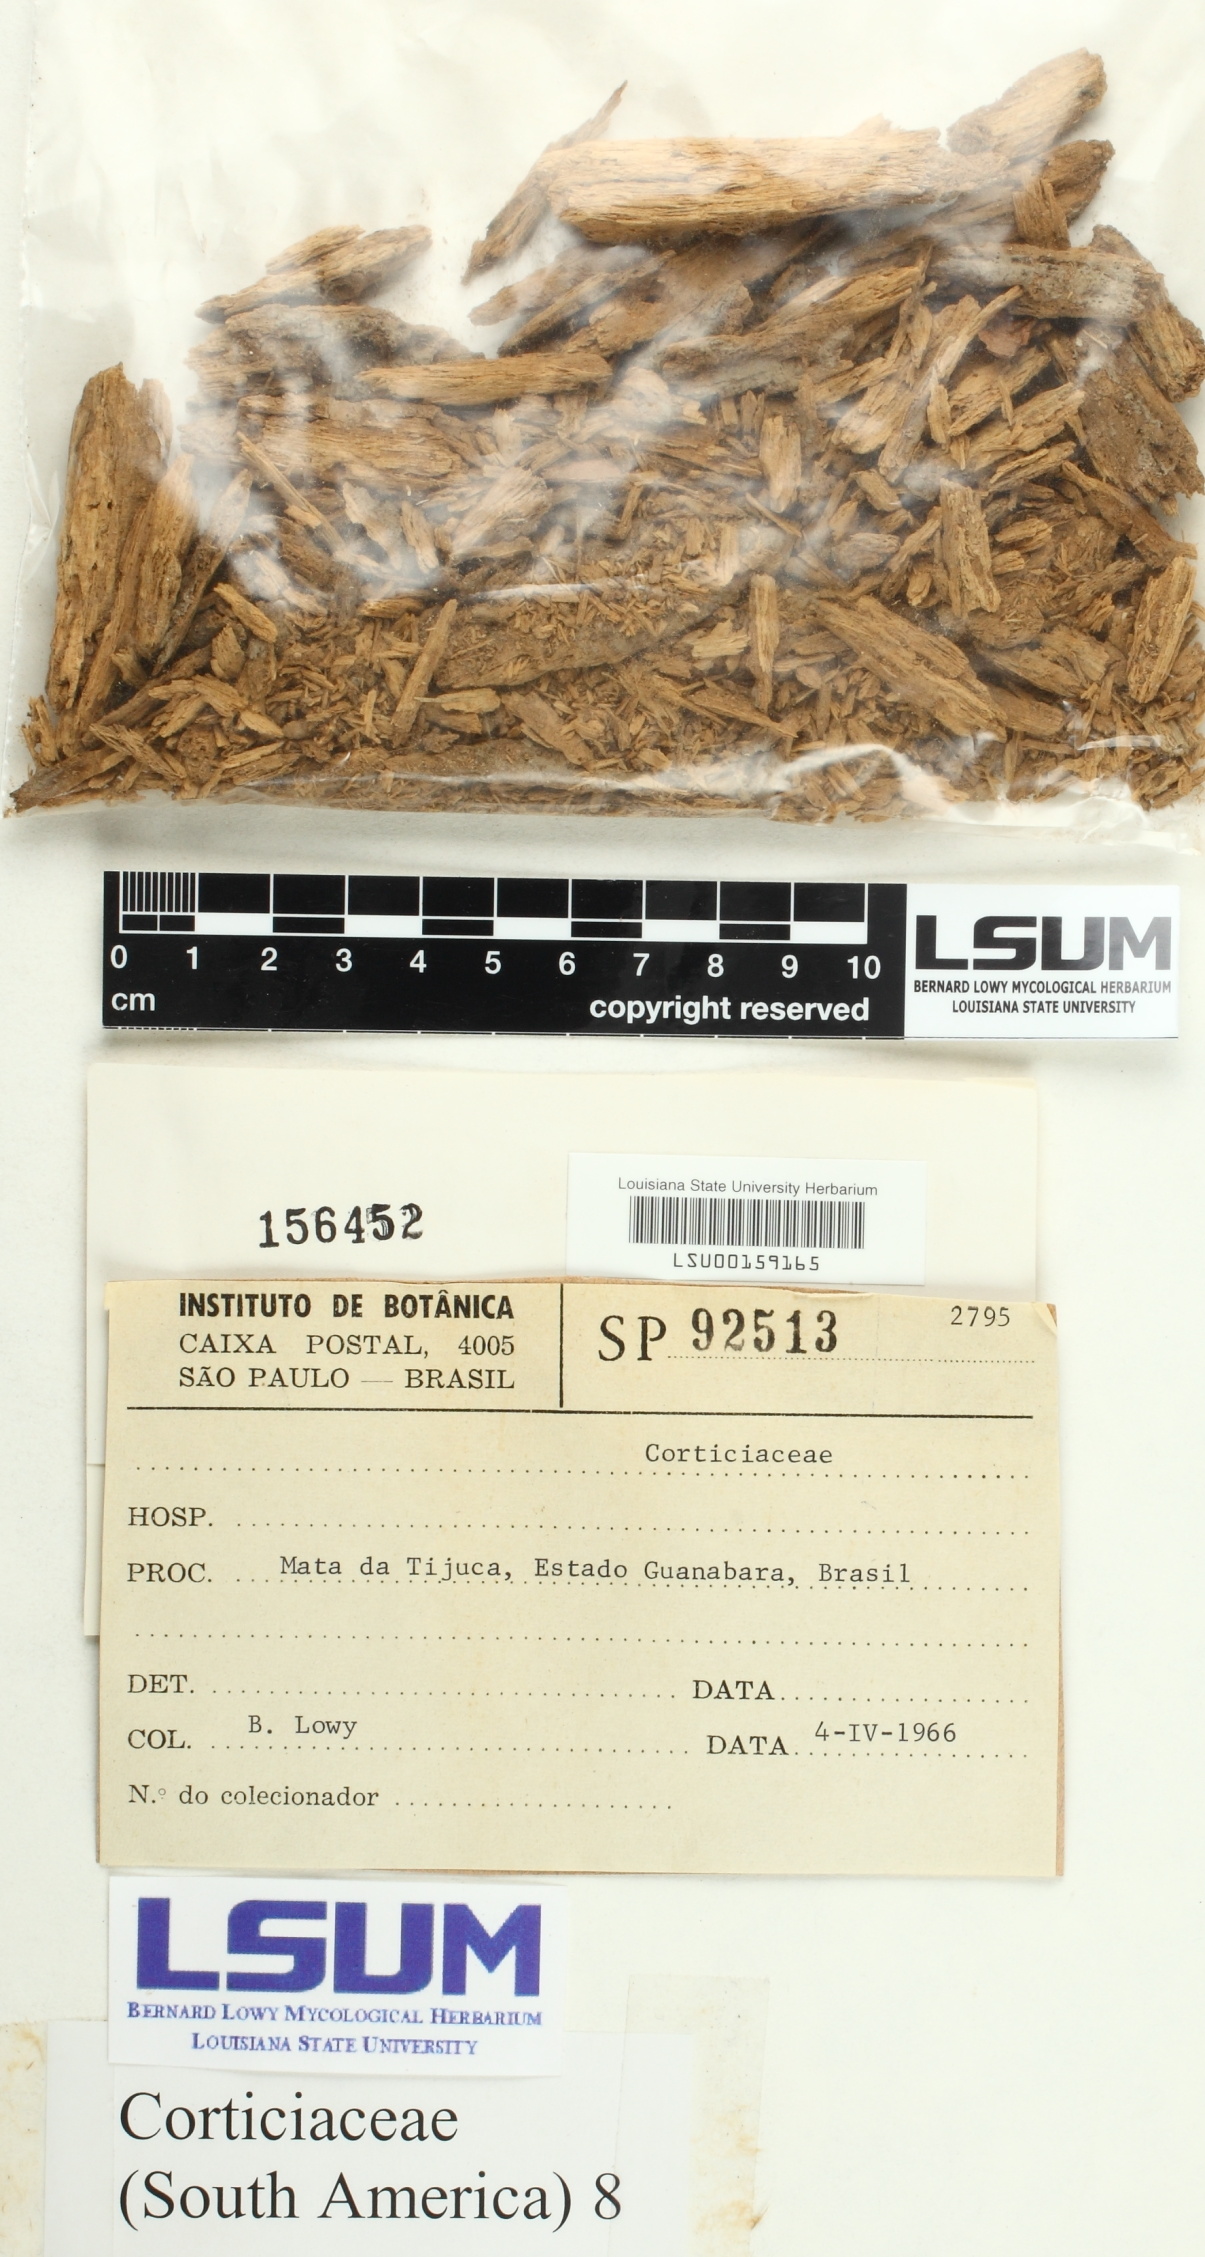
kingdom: Fungi
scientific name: Fungi
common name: Fungi
